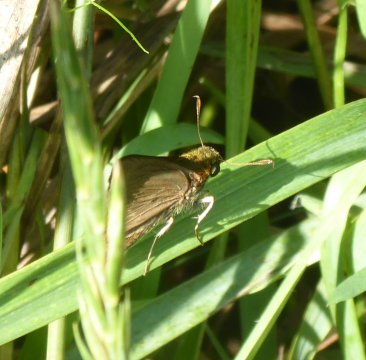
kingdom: Animalia
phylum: Arthropoda
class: Insecta
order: Lepidoptera
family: Hesperiidae
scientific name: Hesperiidae
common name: Skippers
